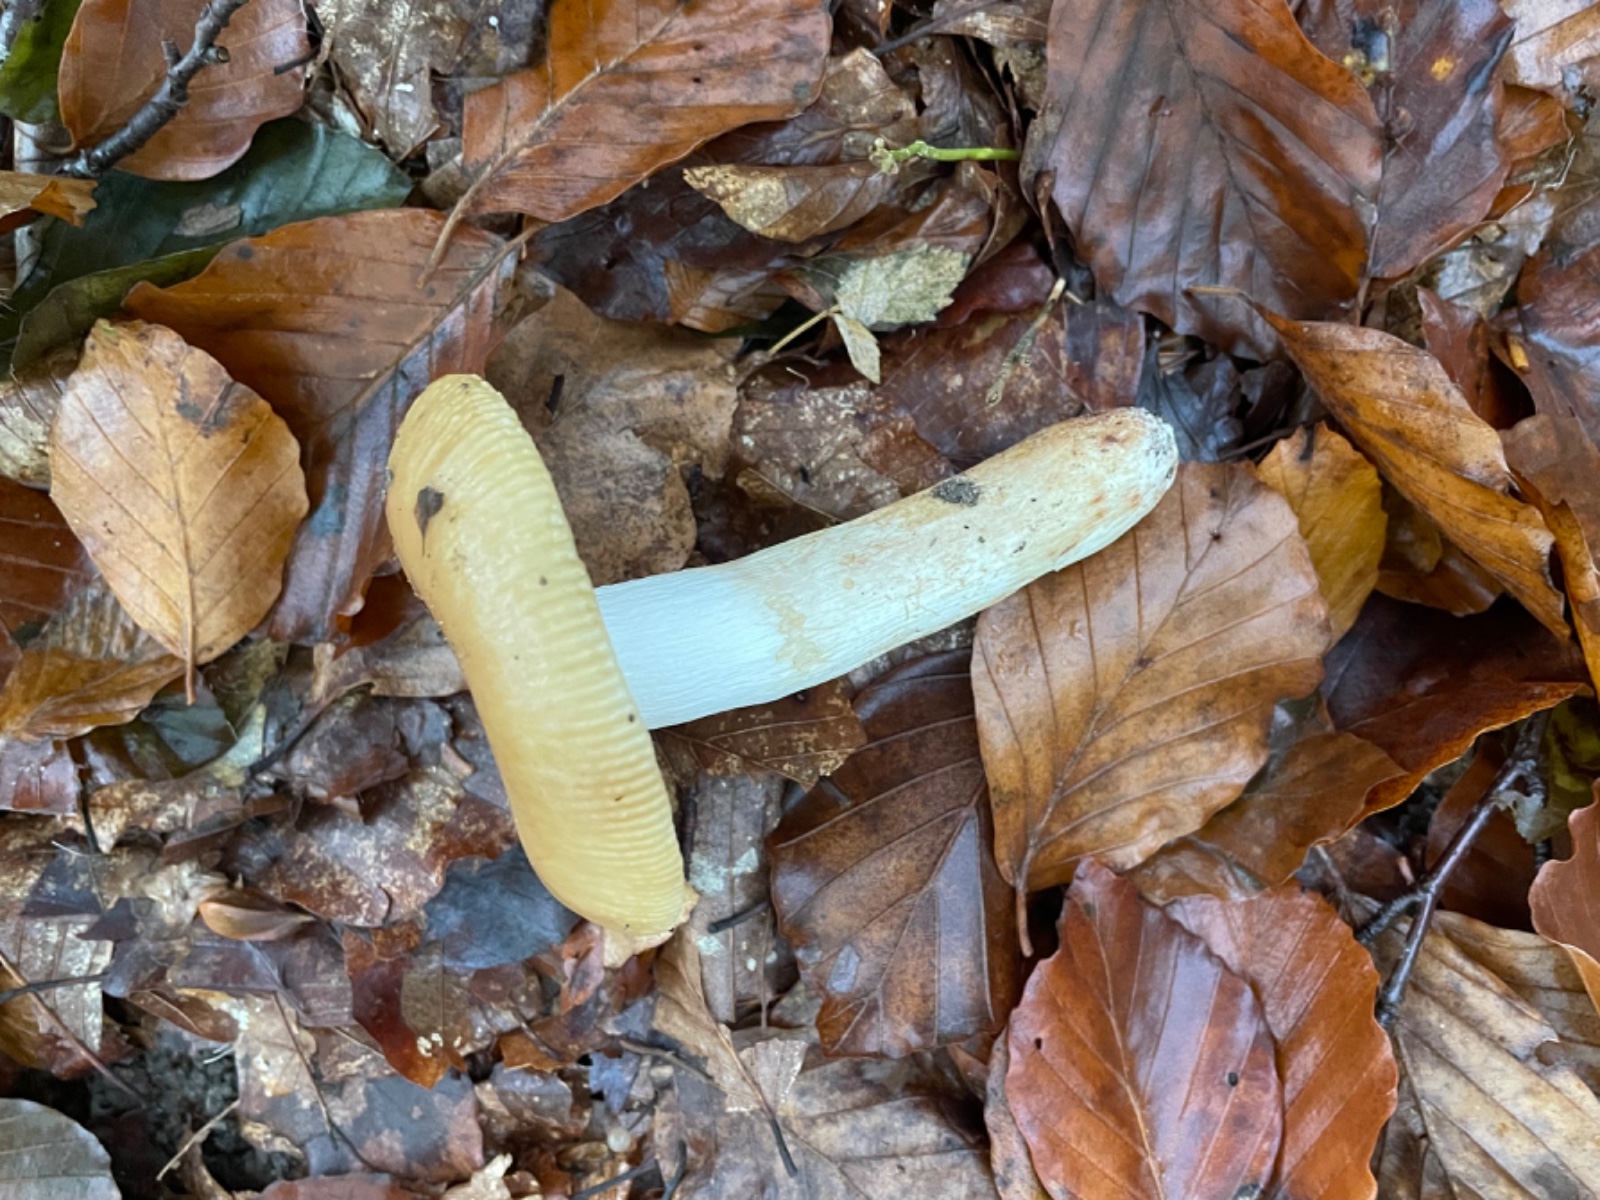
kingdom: Fungi
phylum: Basidiomycota
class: Agaricomycetes
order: Russulales
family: Russulaceae
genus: Russula
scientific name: Russula grata
